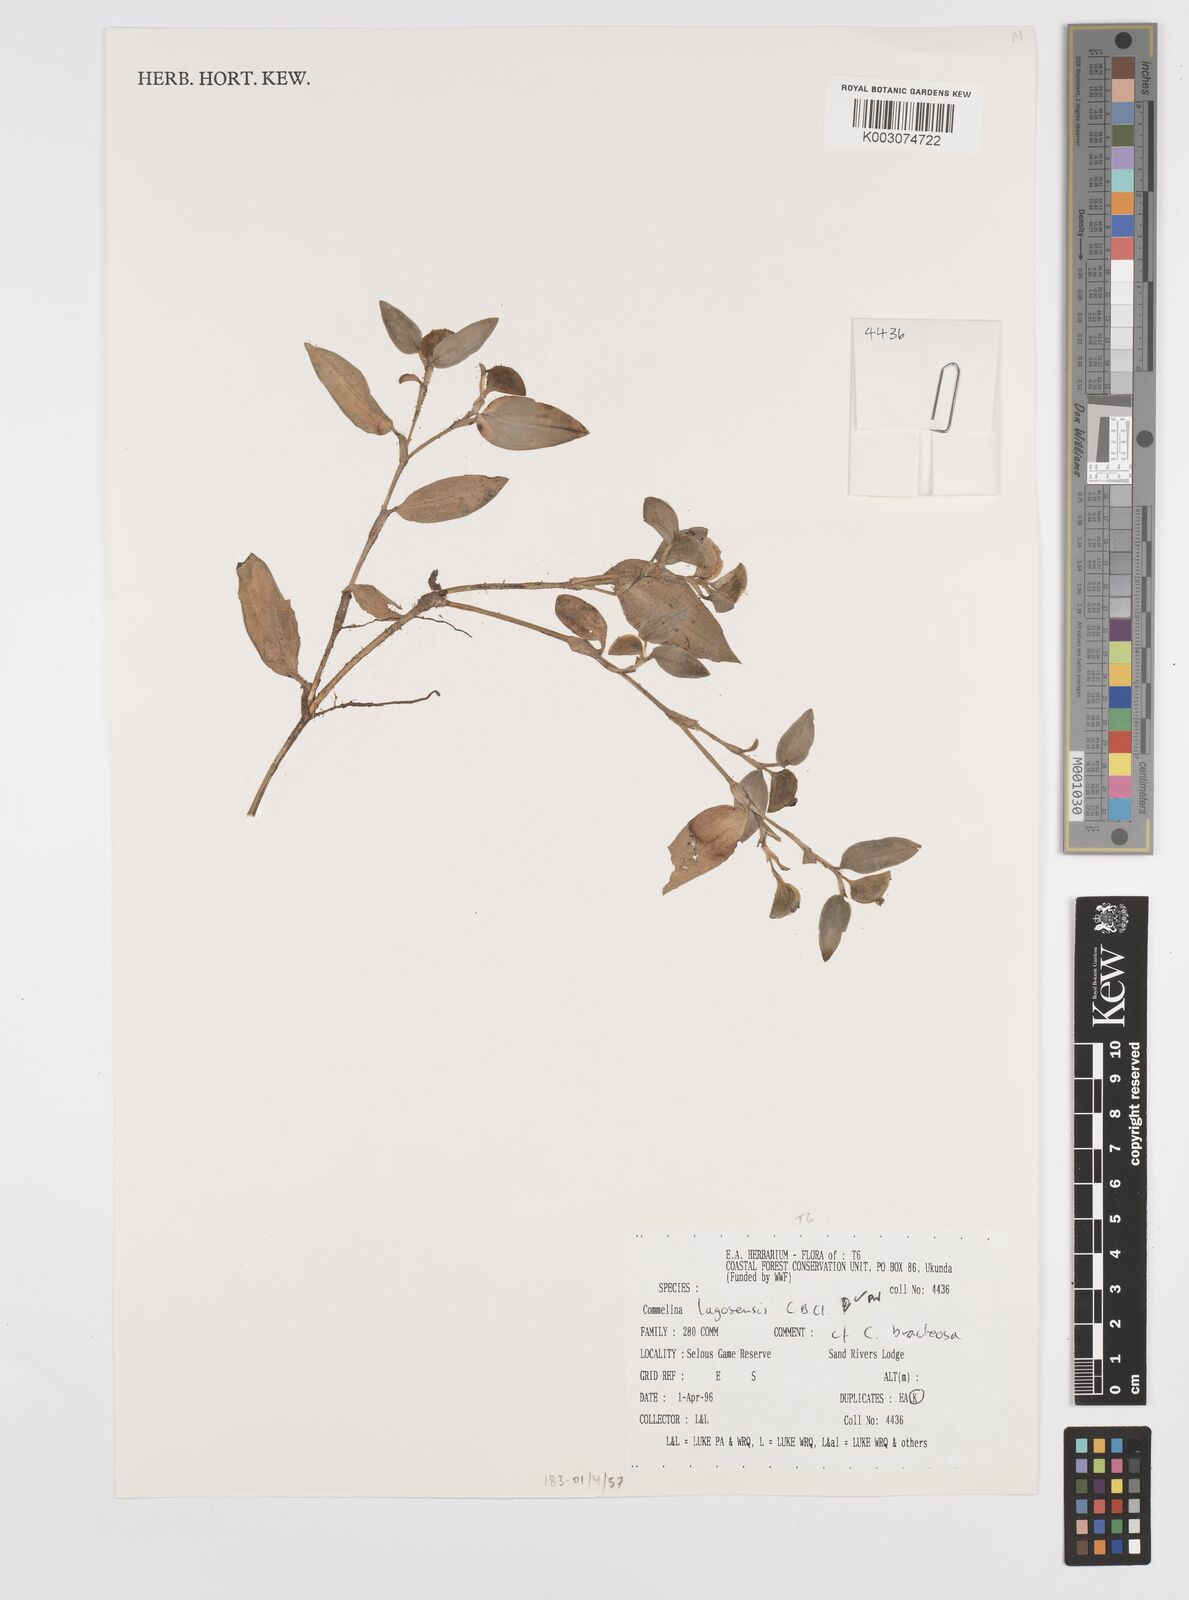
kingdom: Plantae
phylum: Tracheophyta
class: Liliopsida
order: Commelinales
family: Commelinaceae
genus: Commelina
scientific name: Commelina bracteosa
